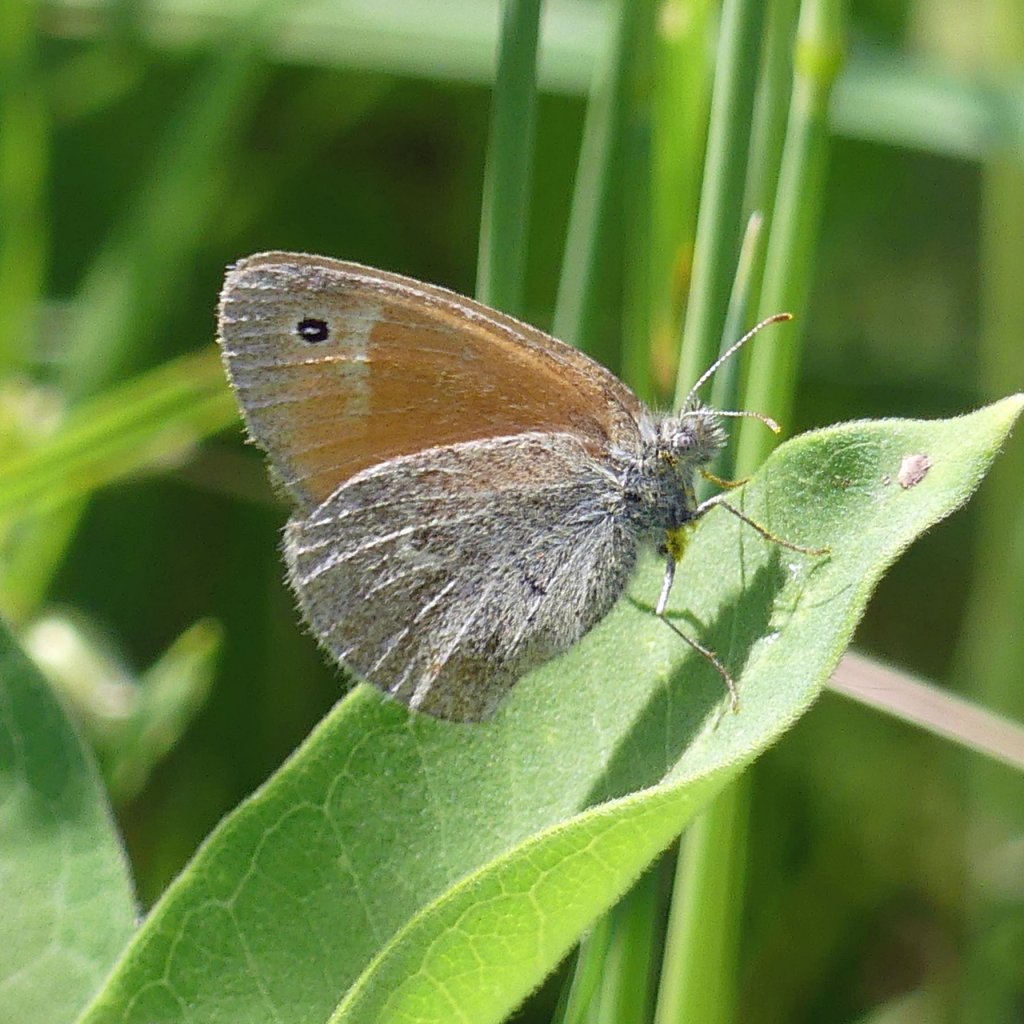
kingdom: Animalia
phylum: Arthropoda
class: Insecta
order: Lepidoptera
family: Nymphalidae
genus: Coenonympha
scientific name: Coenonympha tullia
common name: Large Heath
